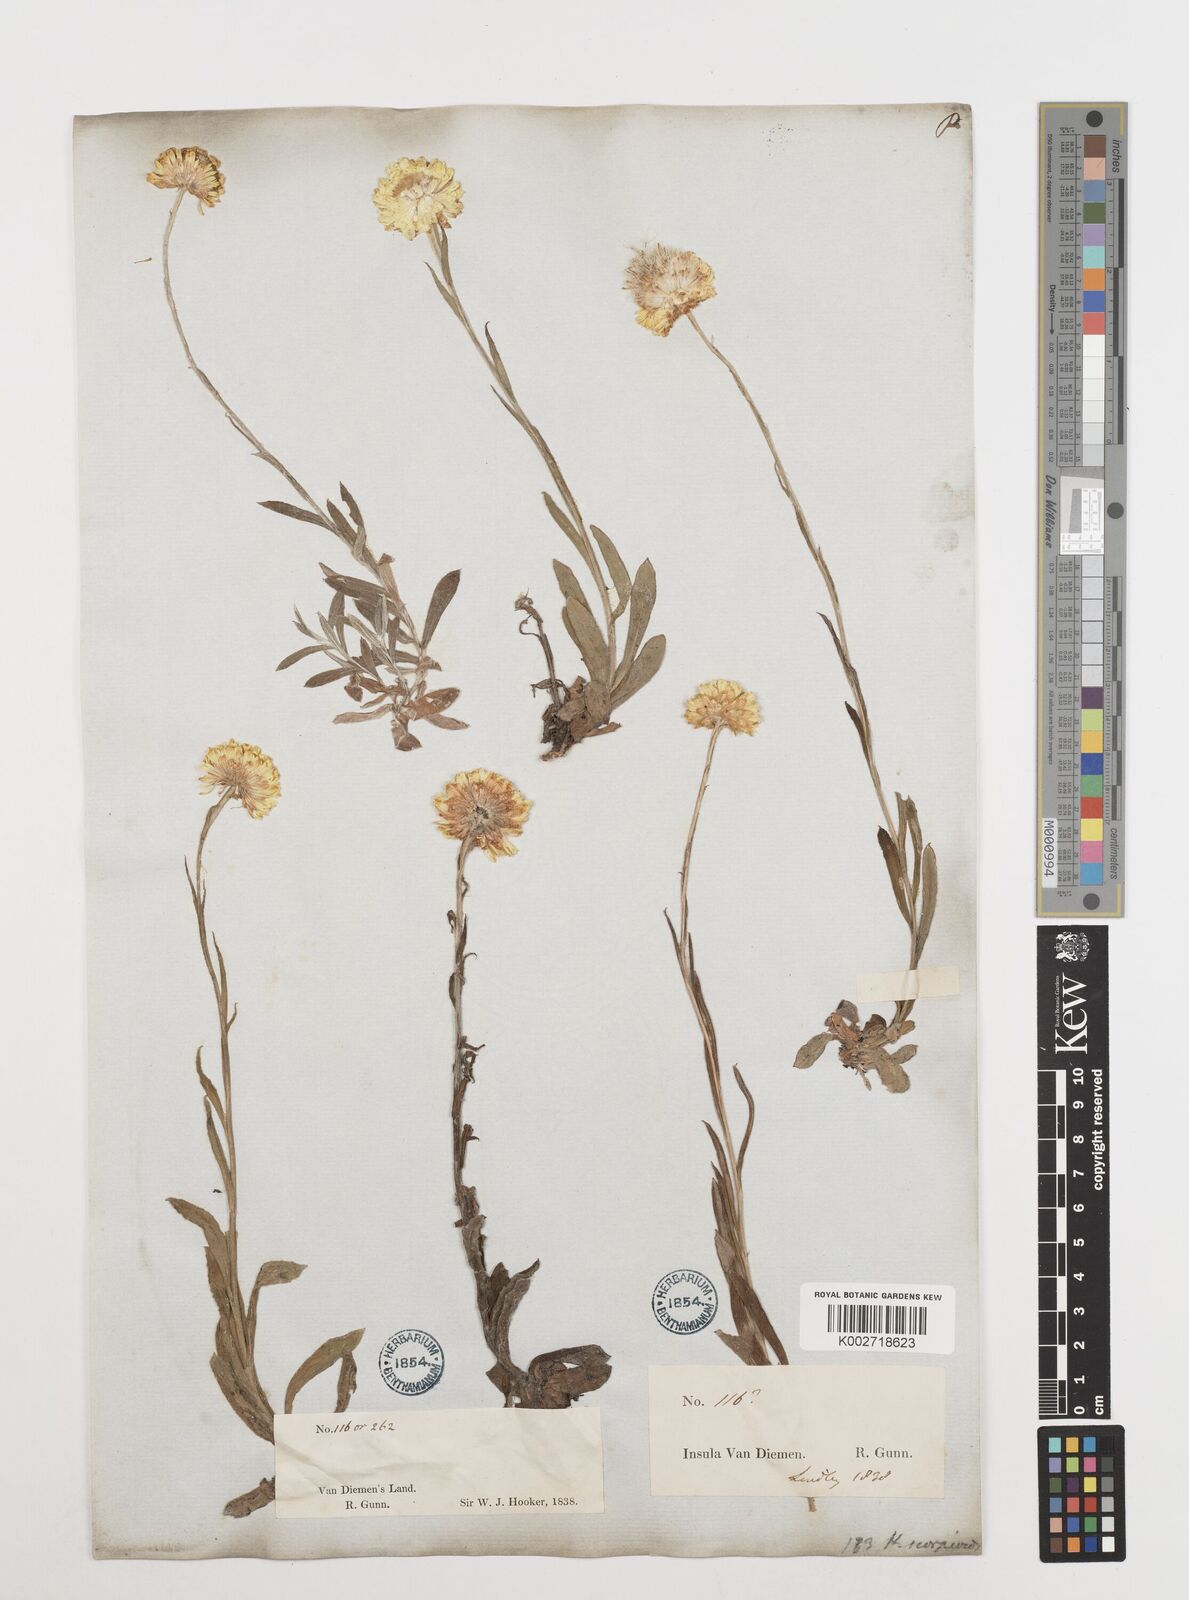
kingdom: Plantae
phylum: Tracheophyta
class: Magnoliopsida
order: Asterales
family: Asteraceae
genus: Coronidium
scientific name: Coronidium scorpioides
